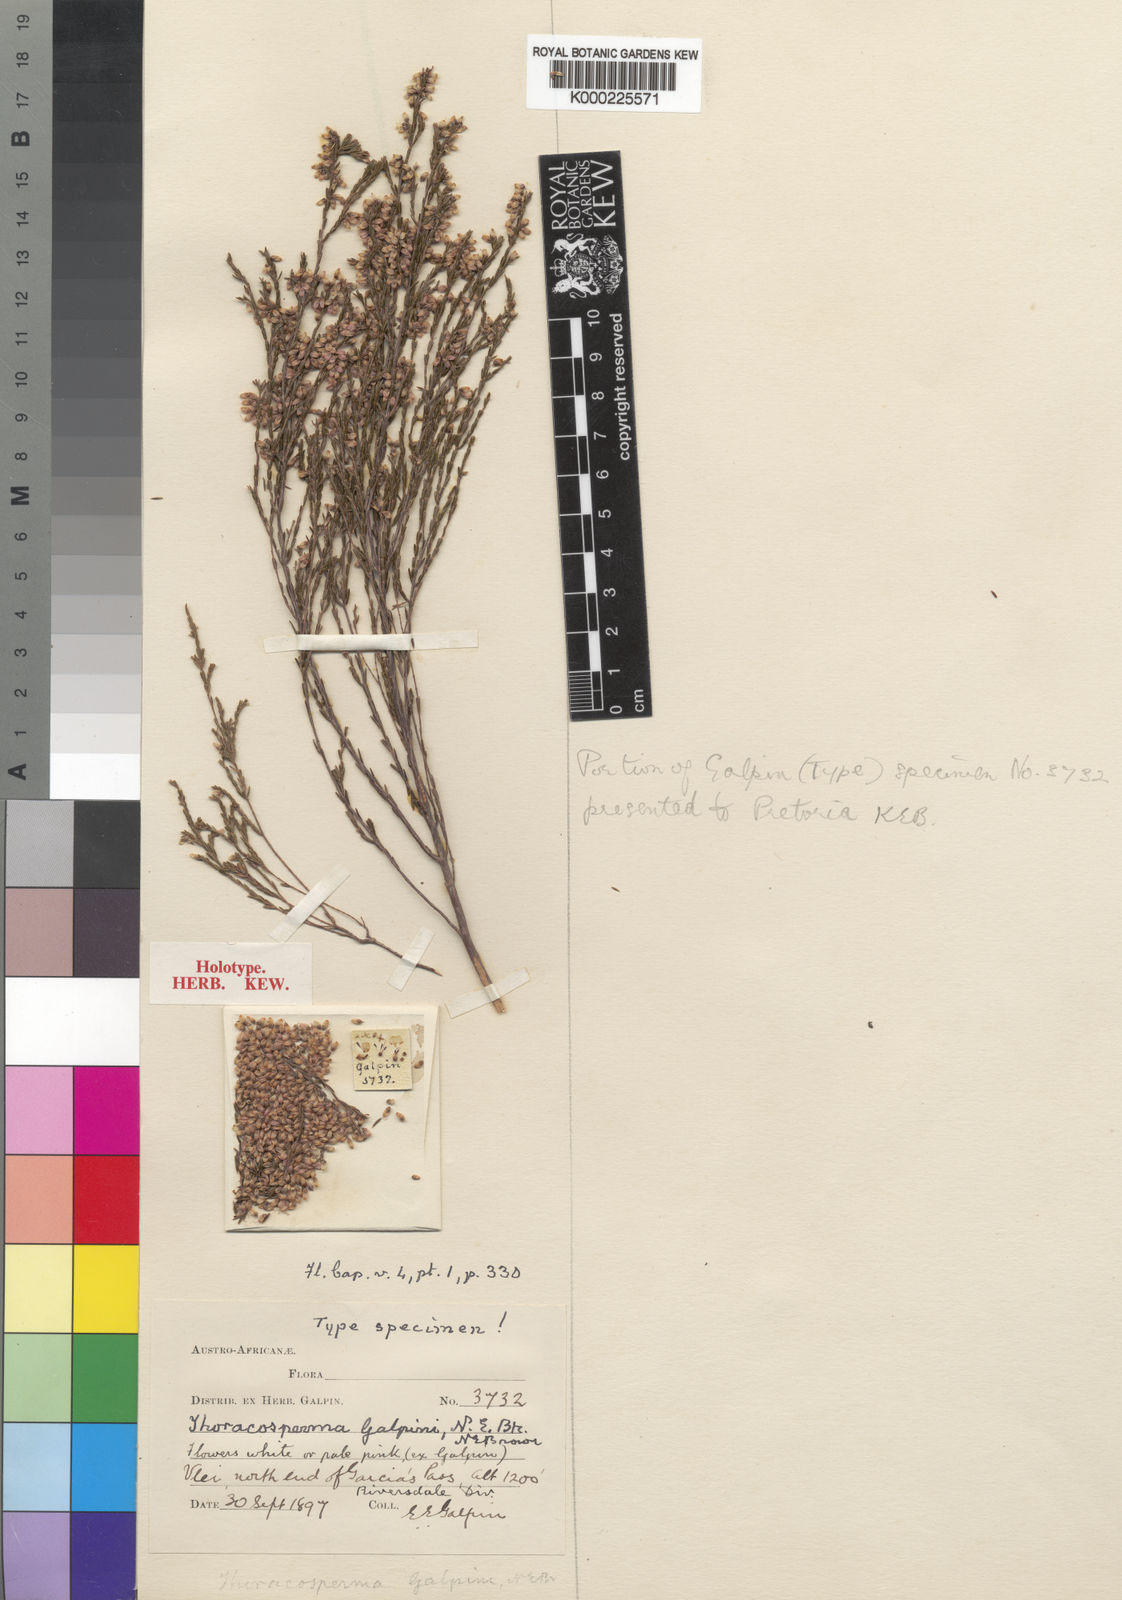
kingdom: Plantae
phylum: Tracheophyta
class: Magnoliopsida
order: Ericales
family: Ericaceae
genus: Erica
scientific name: Erica rosacea
